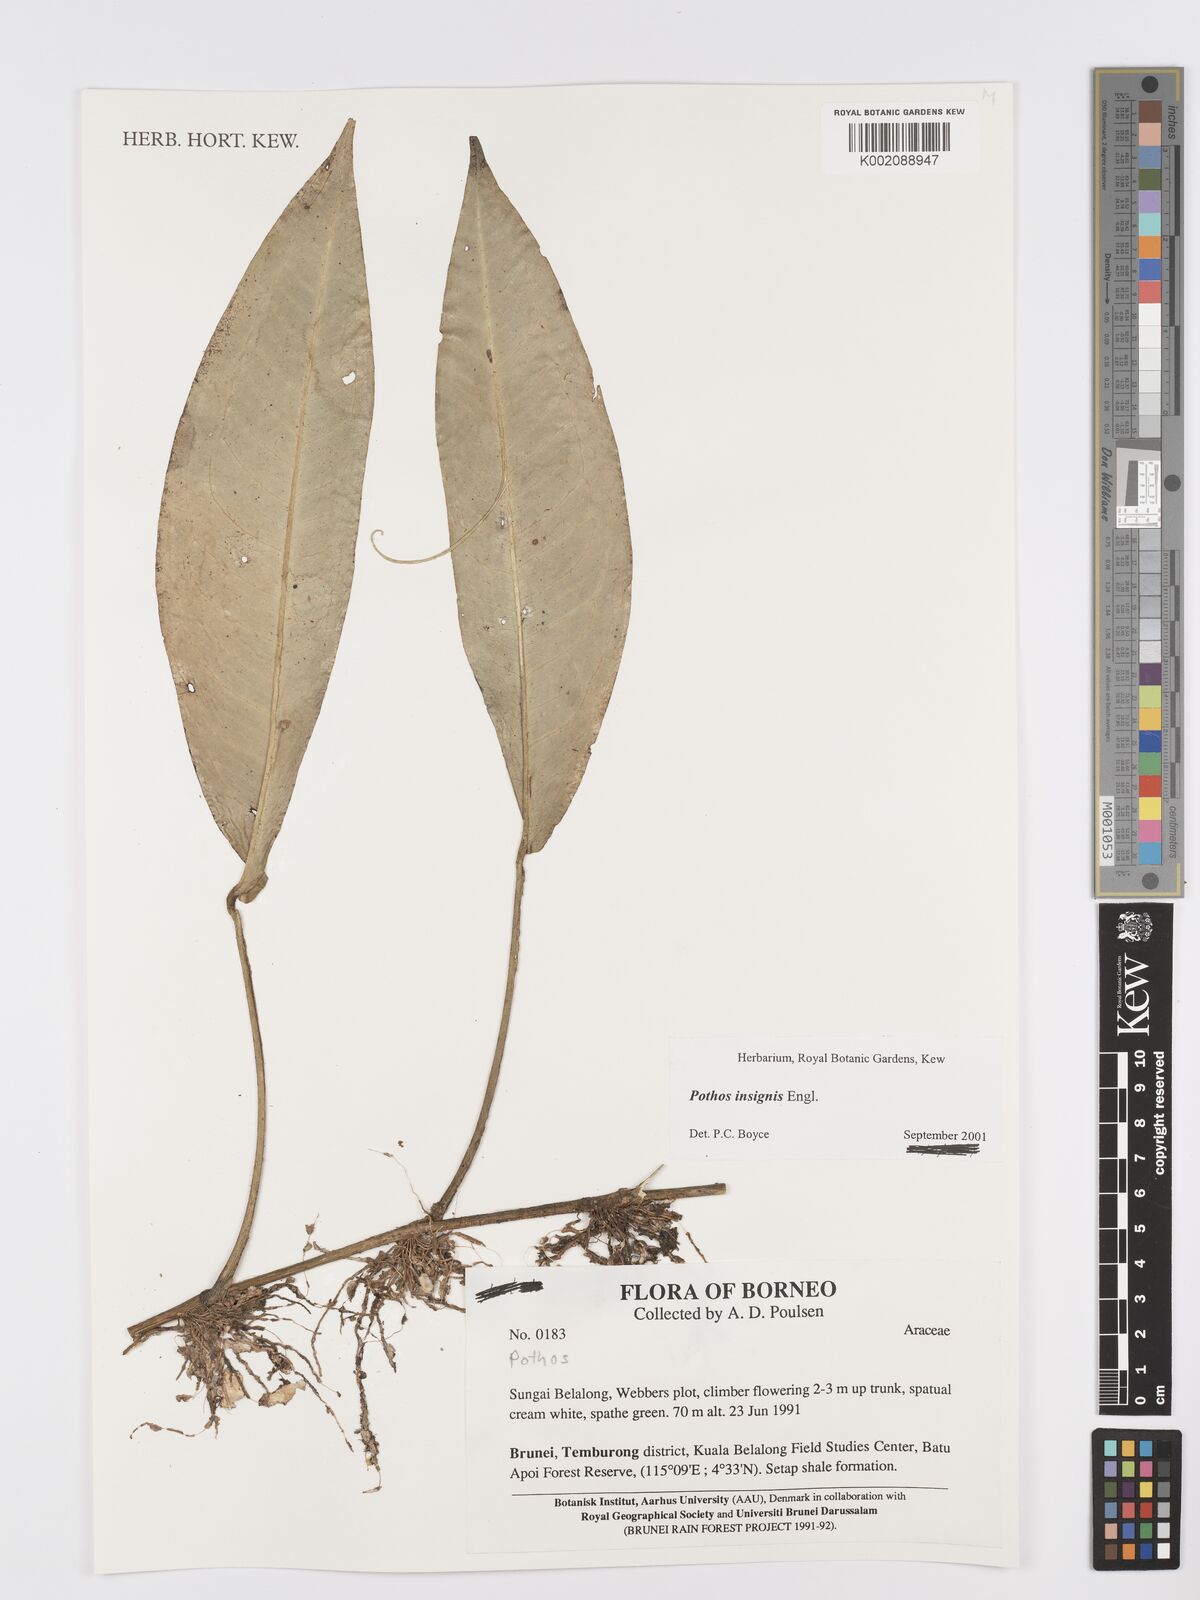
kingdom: Plantae
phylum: Tracheophyta
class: Liliopsida
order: Alismatales
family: Araceae
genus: Pothos
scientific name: Pothos insignis
